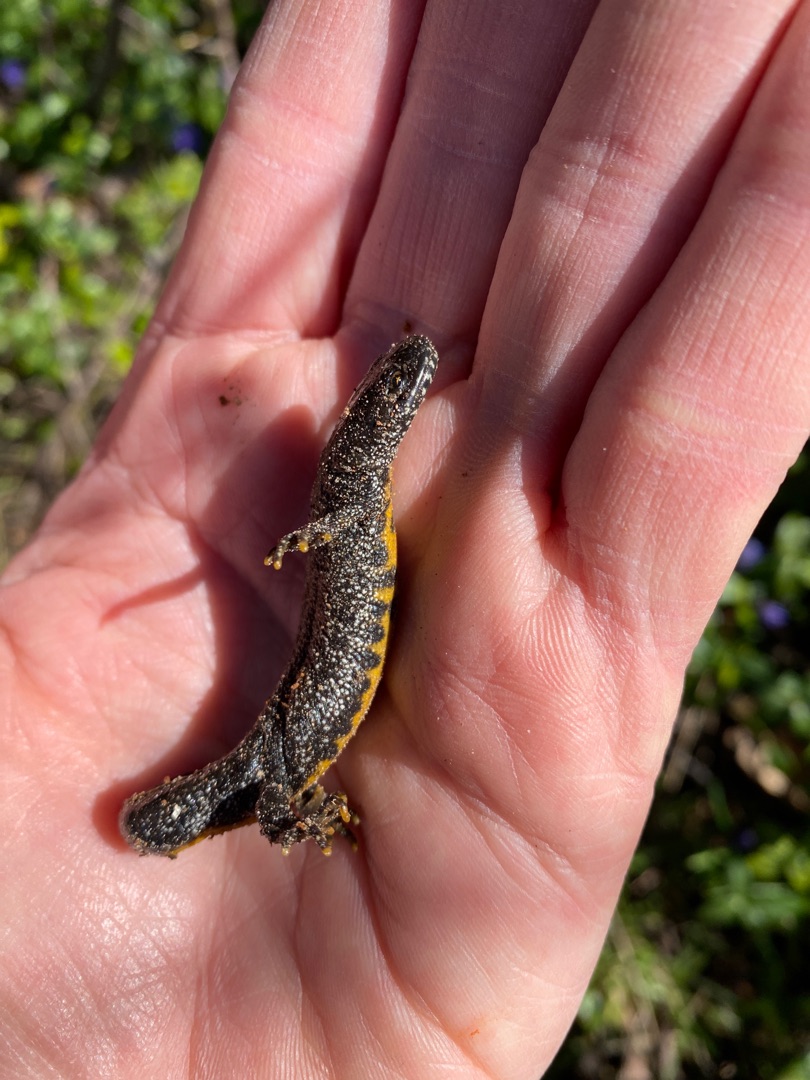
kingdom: Animalia
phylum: Chordata
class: Amphibia
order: Caudata
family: Salamandridae
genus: Triturus
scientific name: Triturus cristatus
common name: Stor vandsalamander
